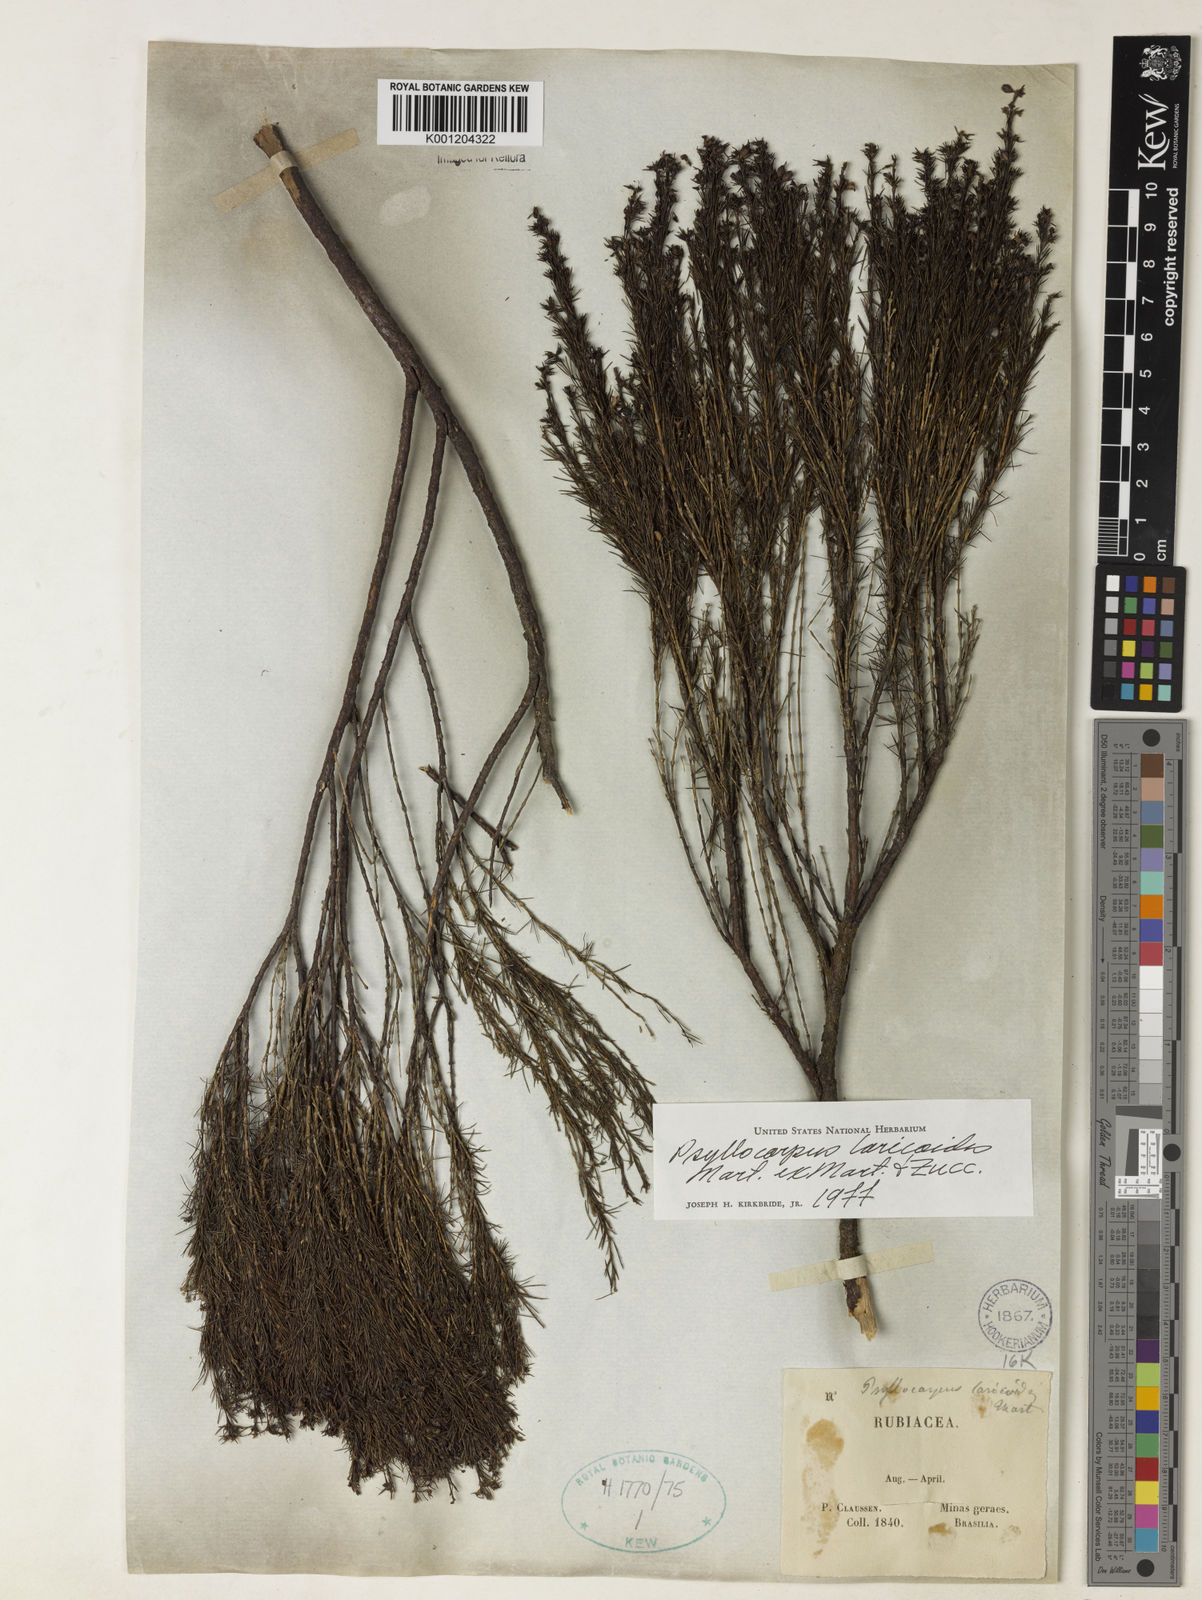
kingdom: Plantae
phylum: Tracheophyta
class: Magnoliopsida
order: Gentianales
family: Rubiaceae
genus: Psyllocarpus
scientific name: Psyllocarpus laricoides
